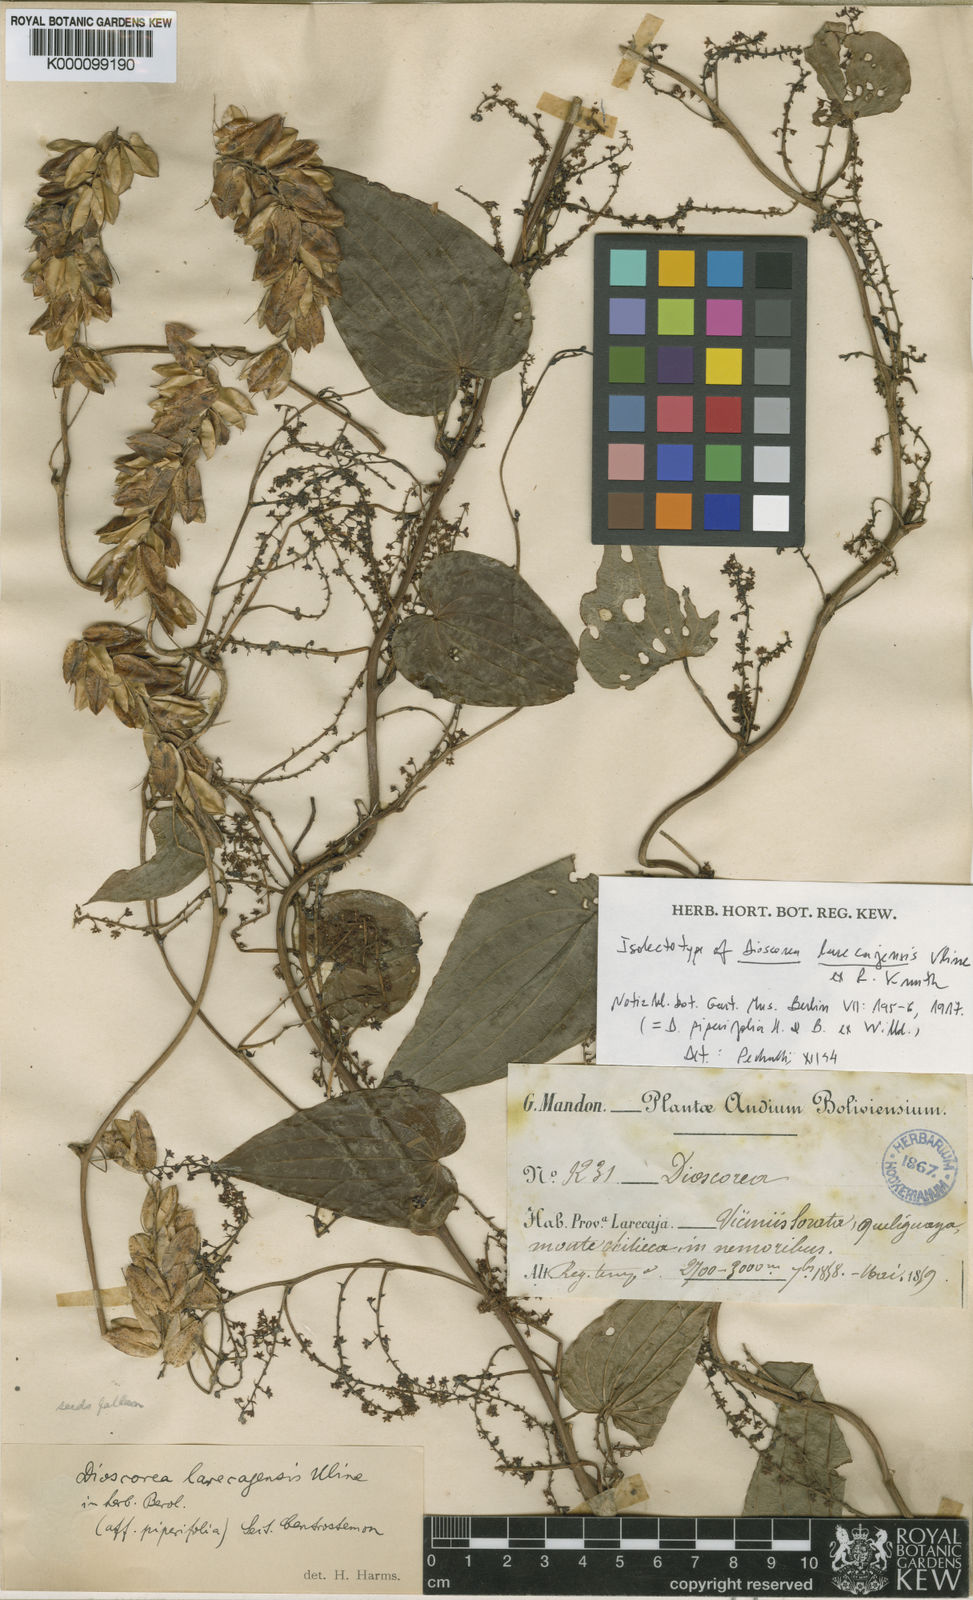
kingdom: Plantae
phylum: Tracheophyta
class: Liliopsida
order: Dioscoreales
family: Dioscoreaceae
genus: Dioscorea
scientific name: Dioscorea piperifolia
